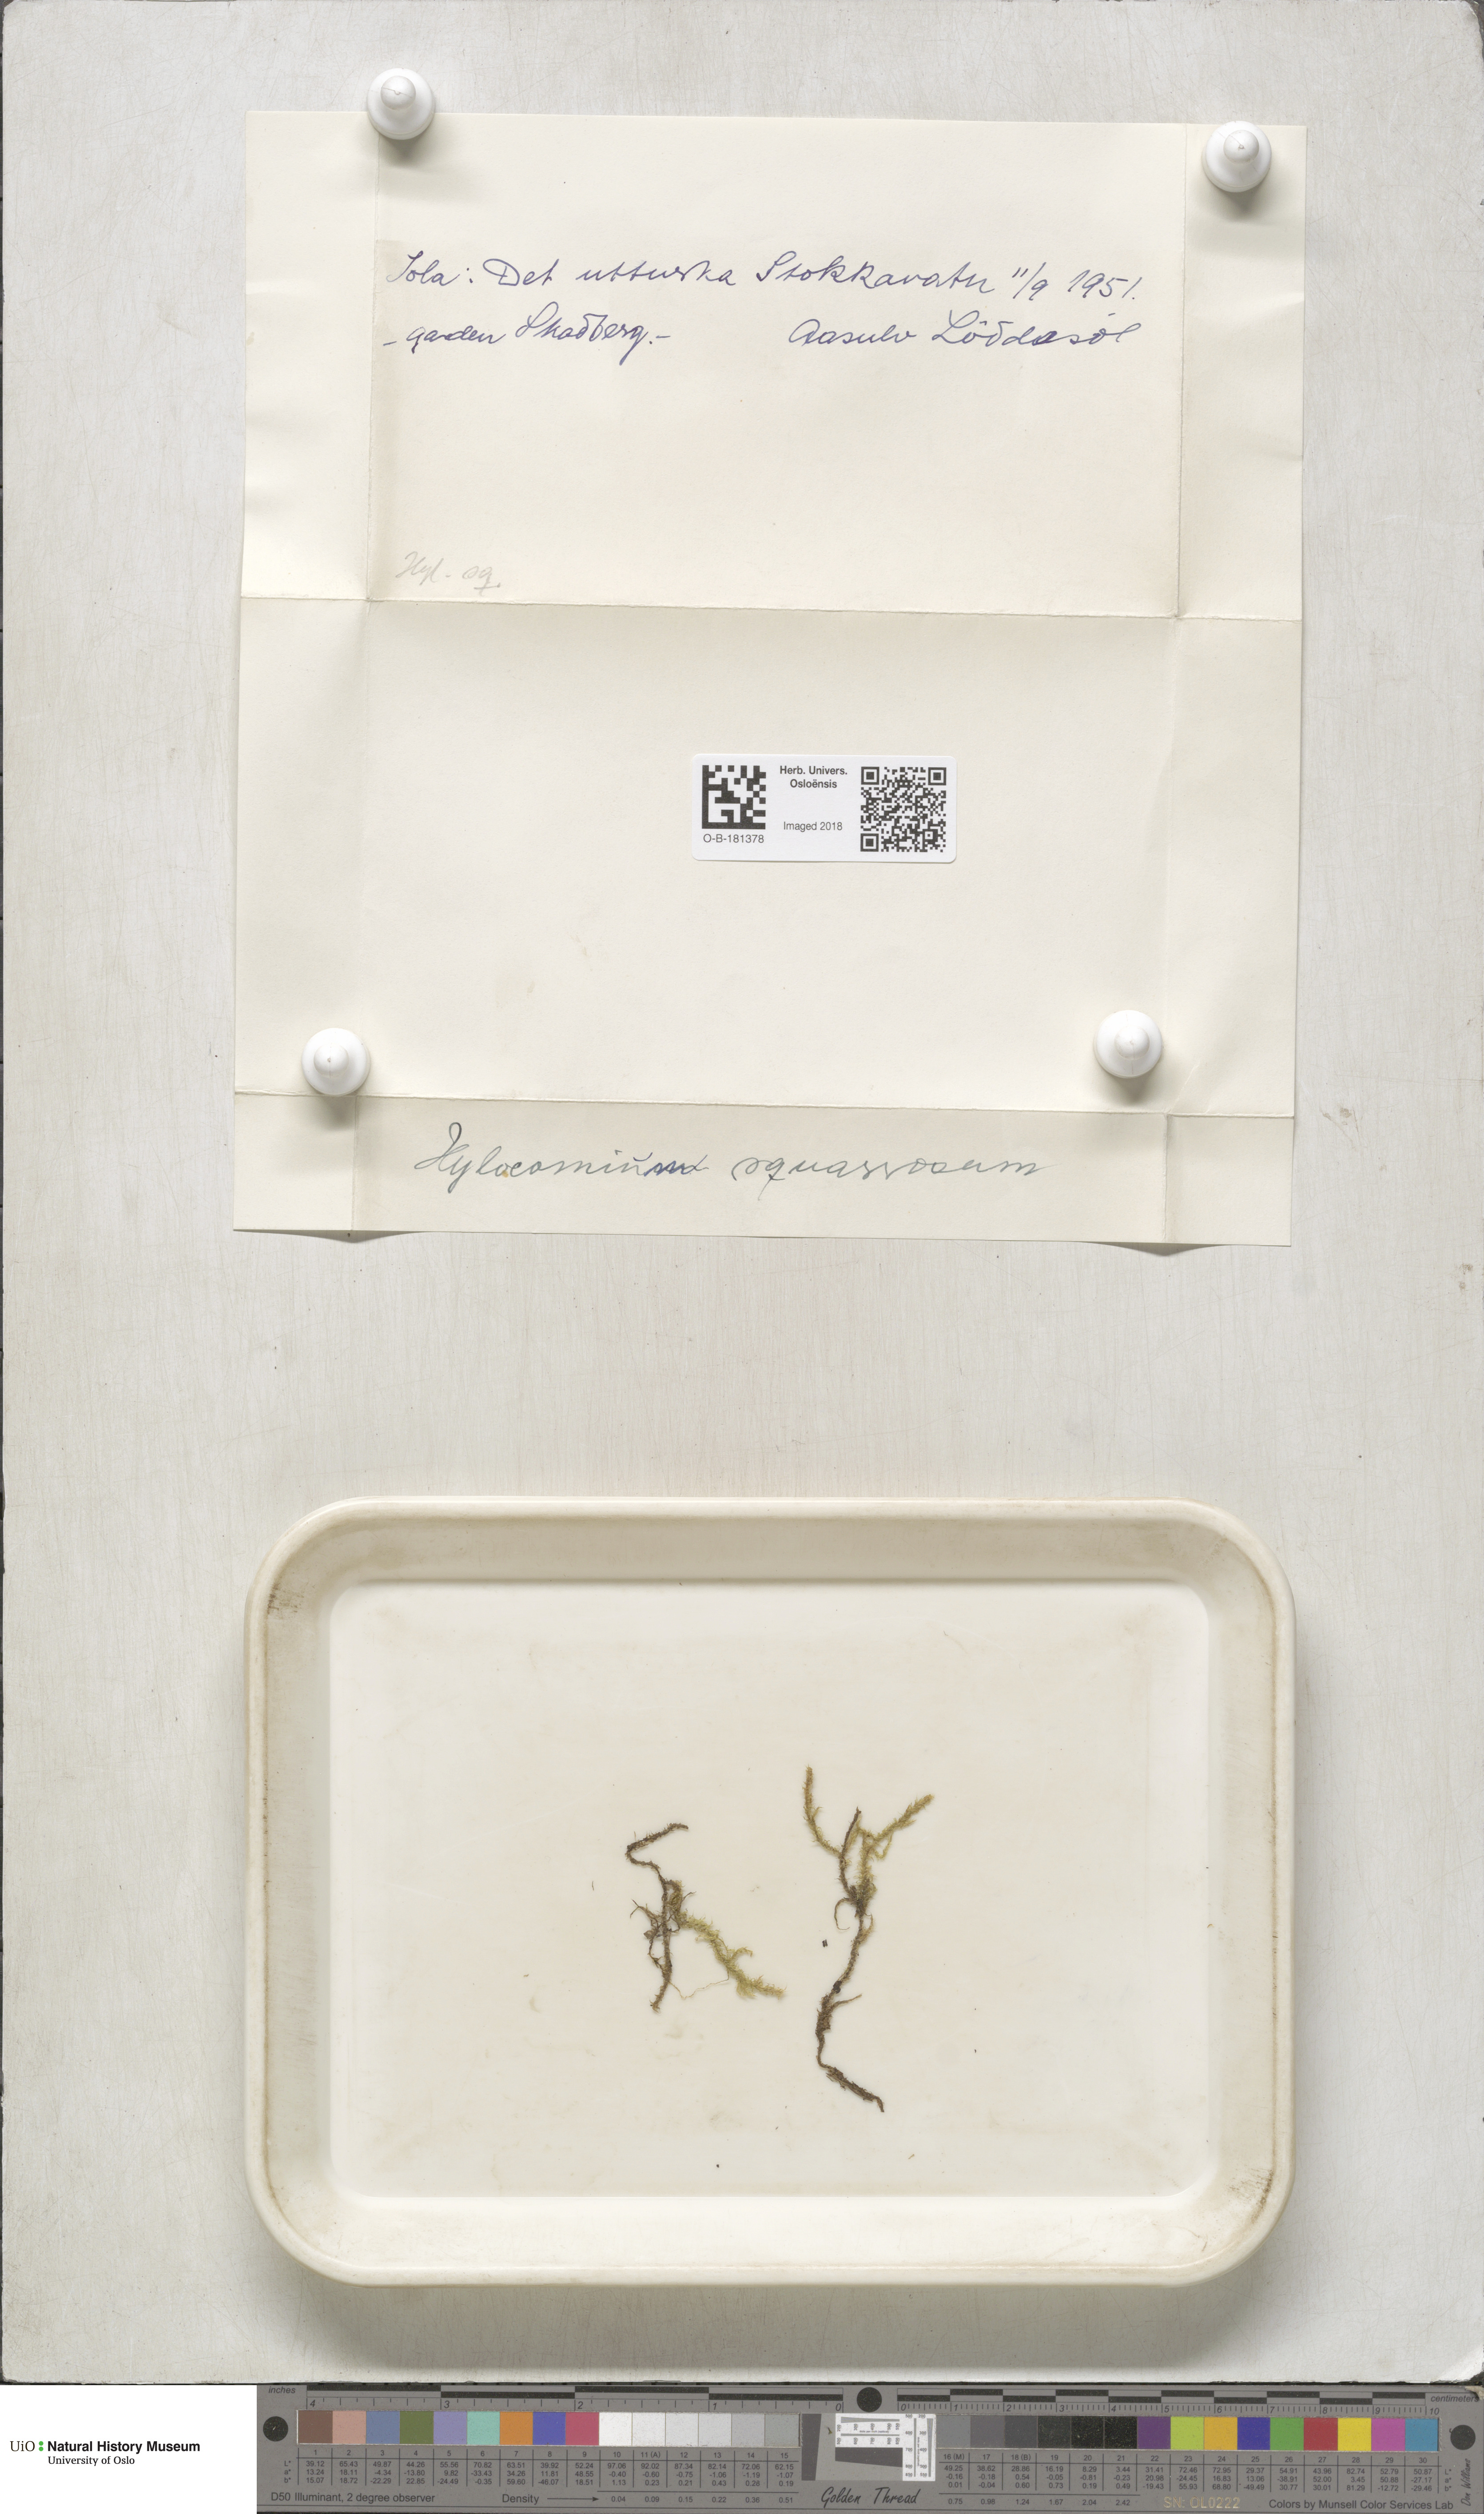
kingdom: Plantae
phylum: Bryophyta
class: Bryopsida
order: Hypnales
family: Hylocomiaceae
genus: Rhytidiadelphus
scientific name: Rhytidiadelphus squarrosus
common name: Springy turf-moss
